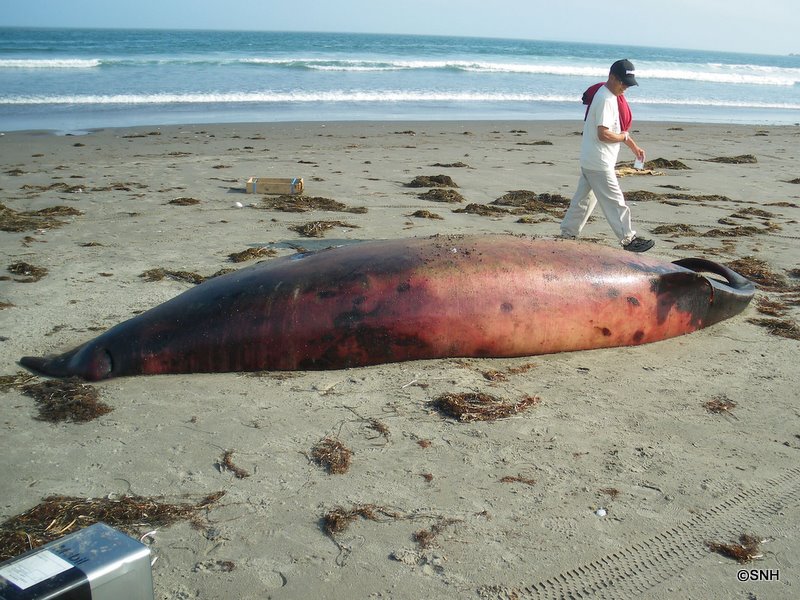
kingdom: Animalia
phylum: Chordata
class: Mammalia
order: Cetacea
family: Hyperoodontidae
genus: Mesoplodon
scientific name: Mesoplodon carlhubbsi
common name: Hubbs' beaked whale
